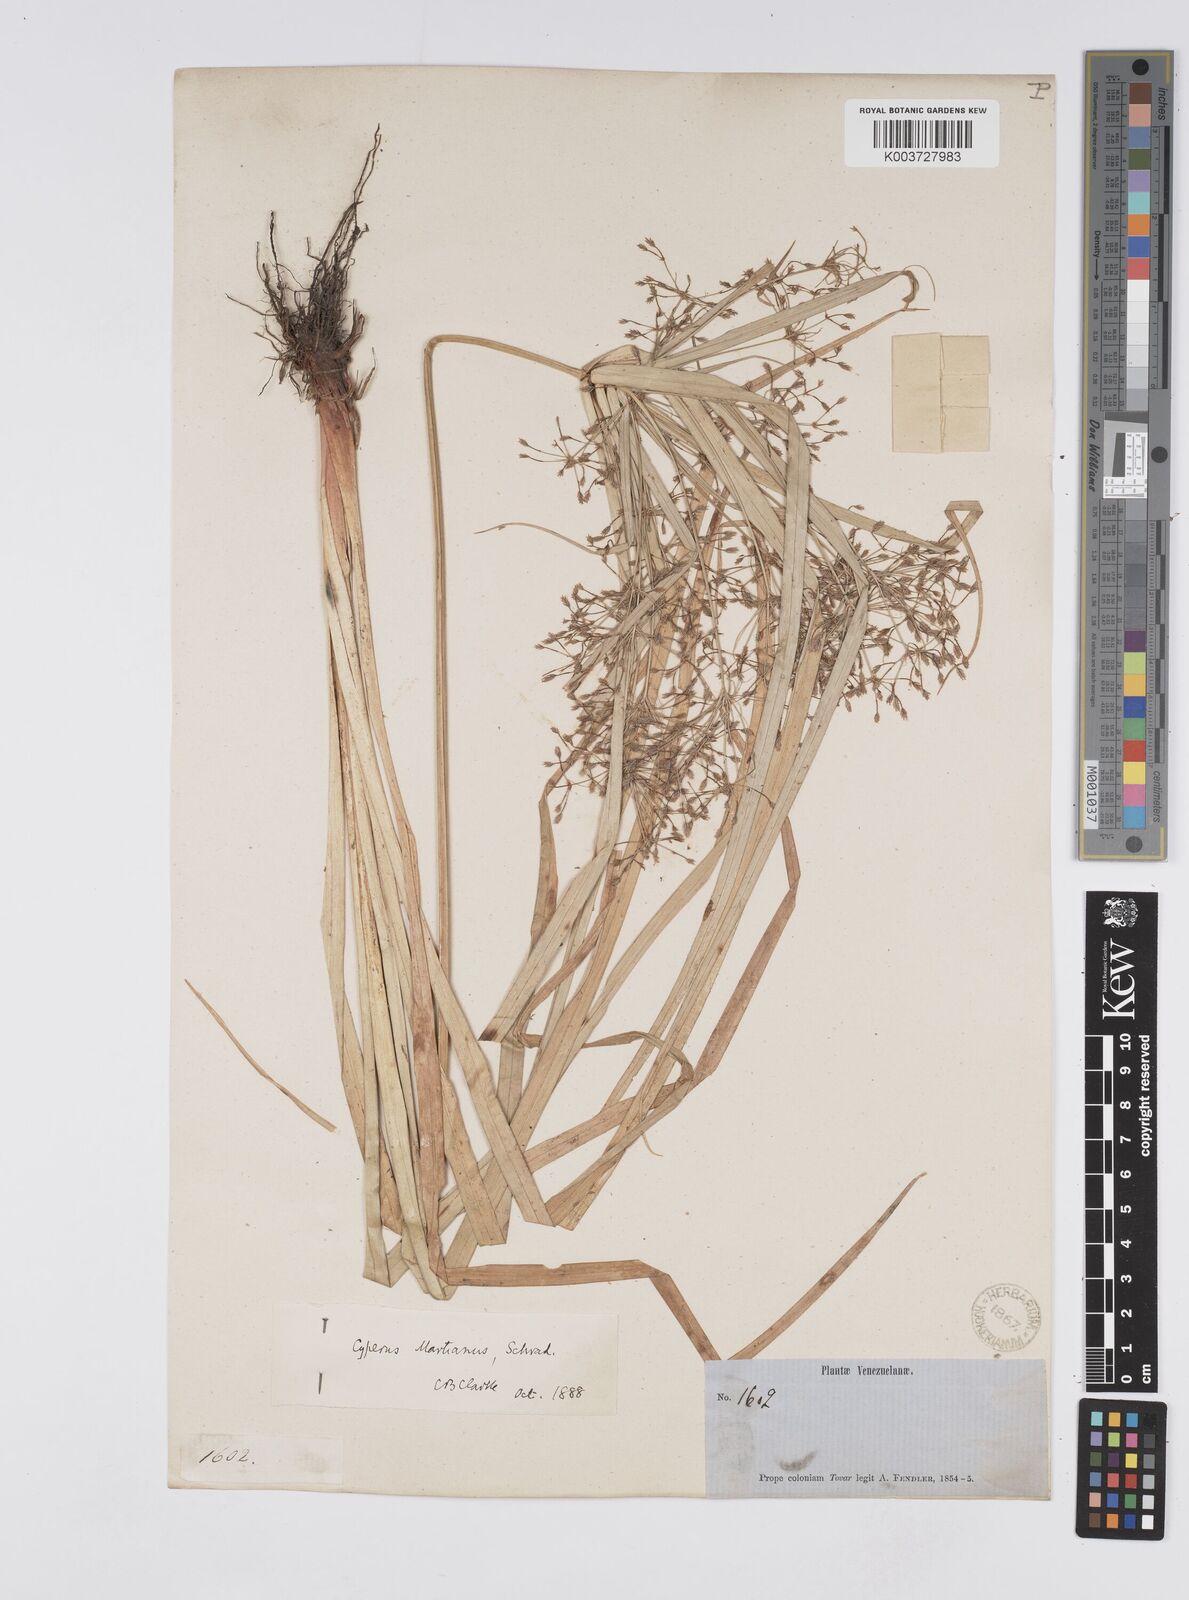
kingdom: Plantae
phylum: Tracheophyta
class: Liliopsida
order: Poales
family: Cyperaceae
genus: Cyperus
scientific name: Cyperus friburgensis
